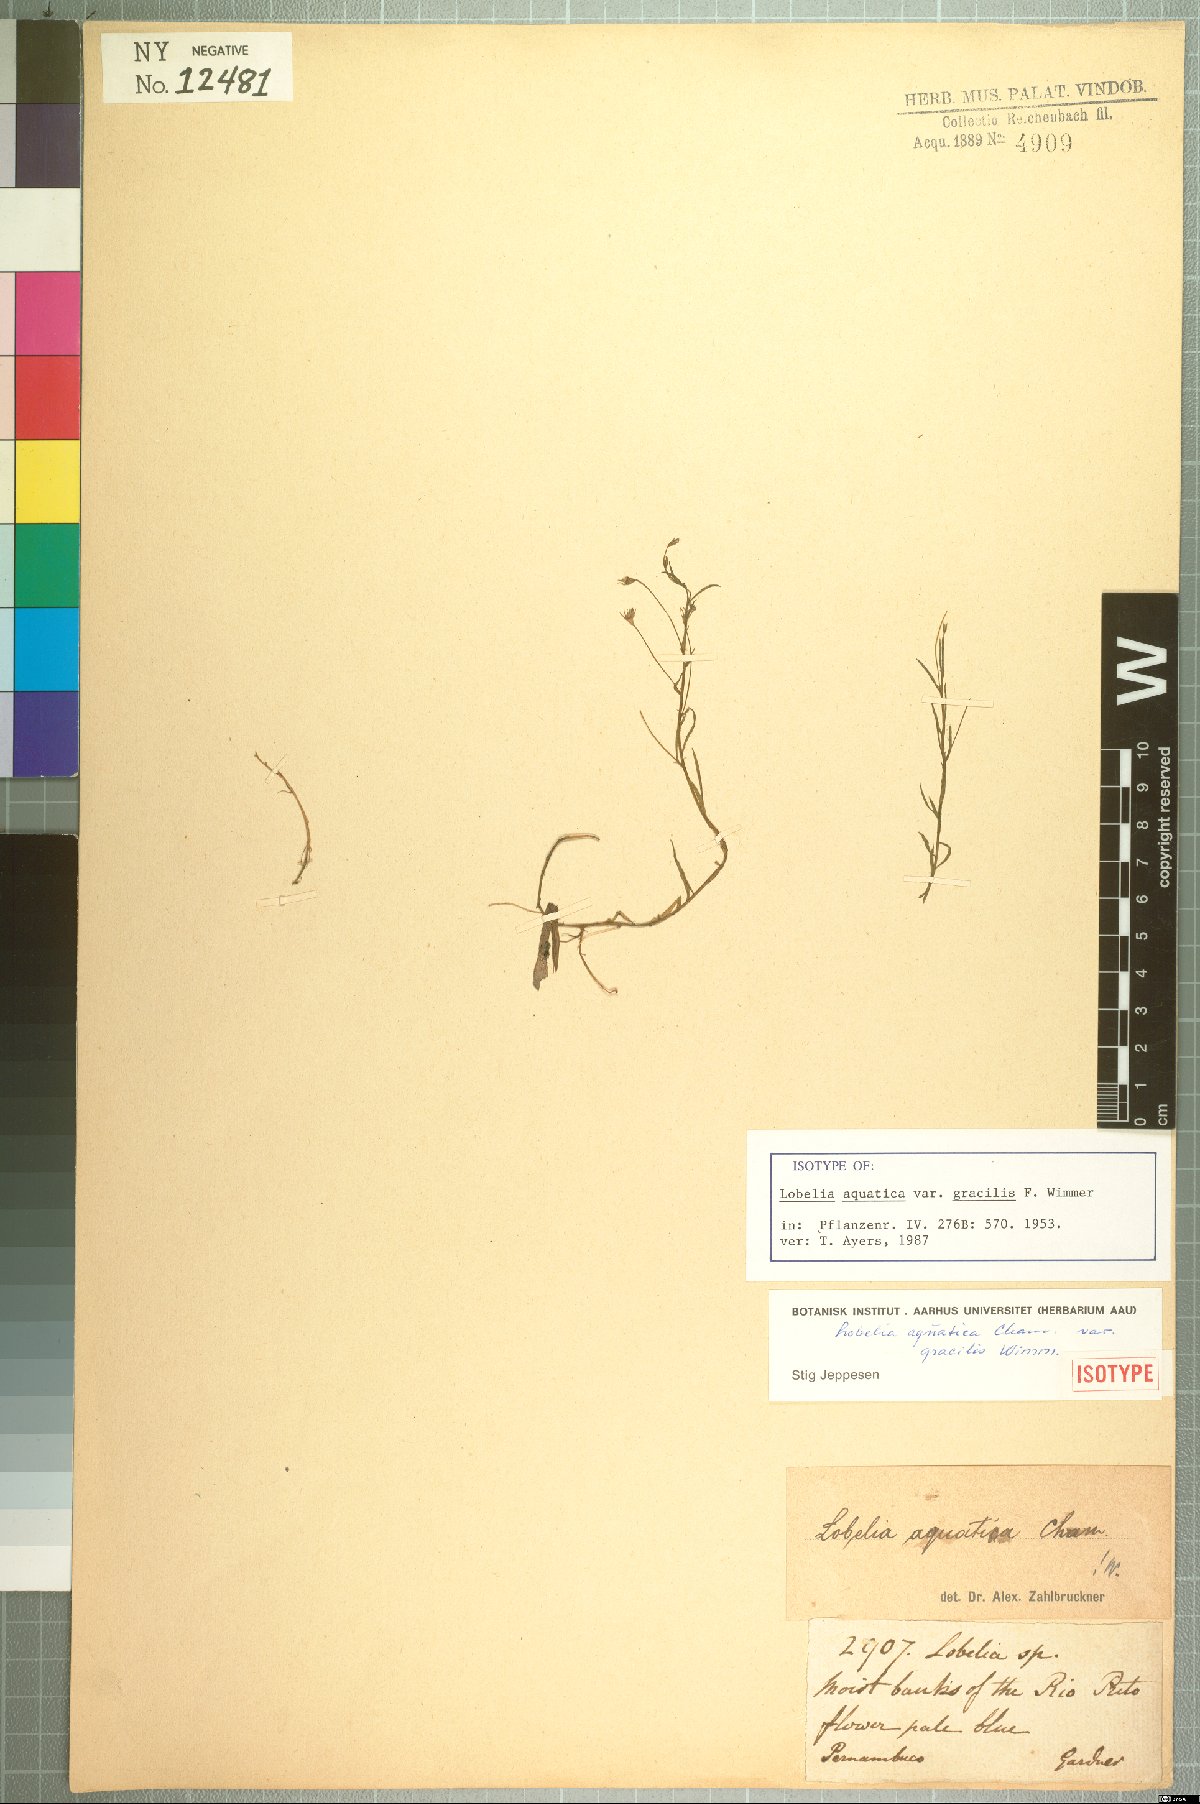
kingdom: Plantae
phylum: Tracheophyta
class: Magnoliopsida
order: Asterales
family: Campanulaceae
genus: Lobelia
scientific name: Lobelia aquatica
